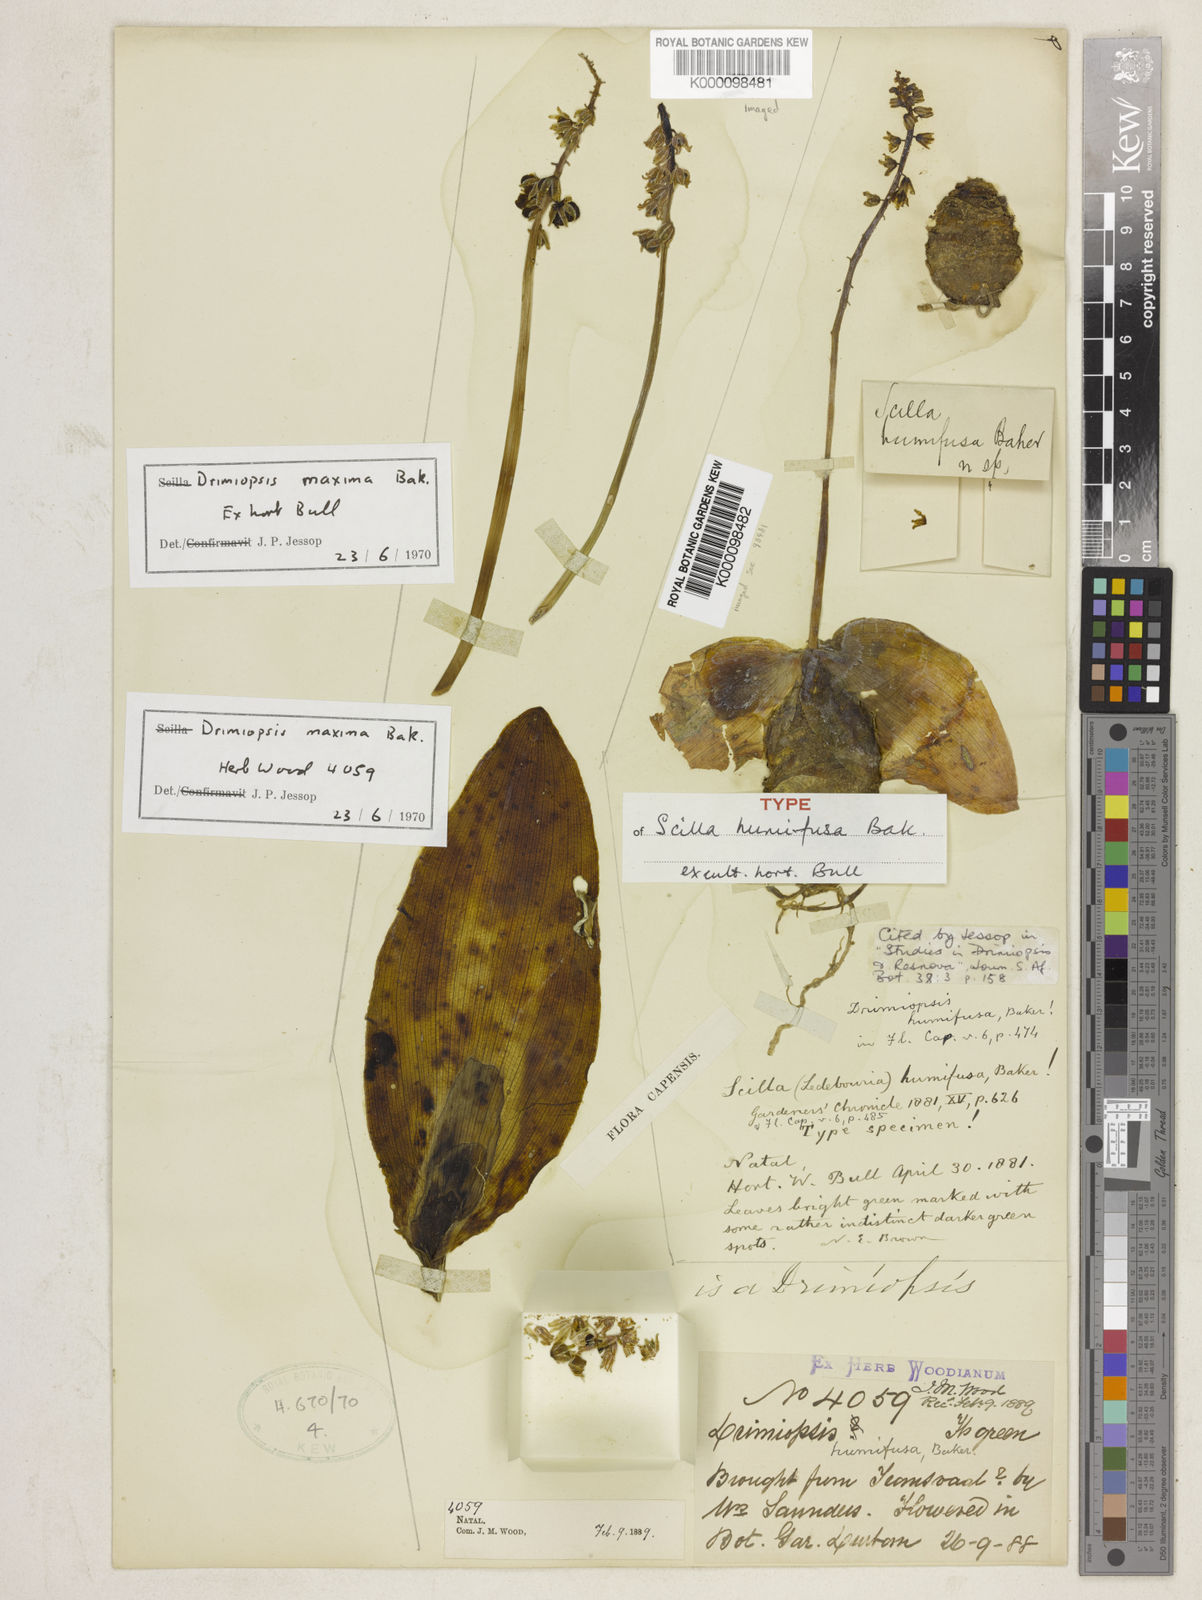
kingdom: Plantae
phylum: Tracheophyta
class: Liliopsida
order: Asparagales
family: Asparagaceae
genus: Resnova
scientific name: Resnova humifusa
